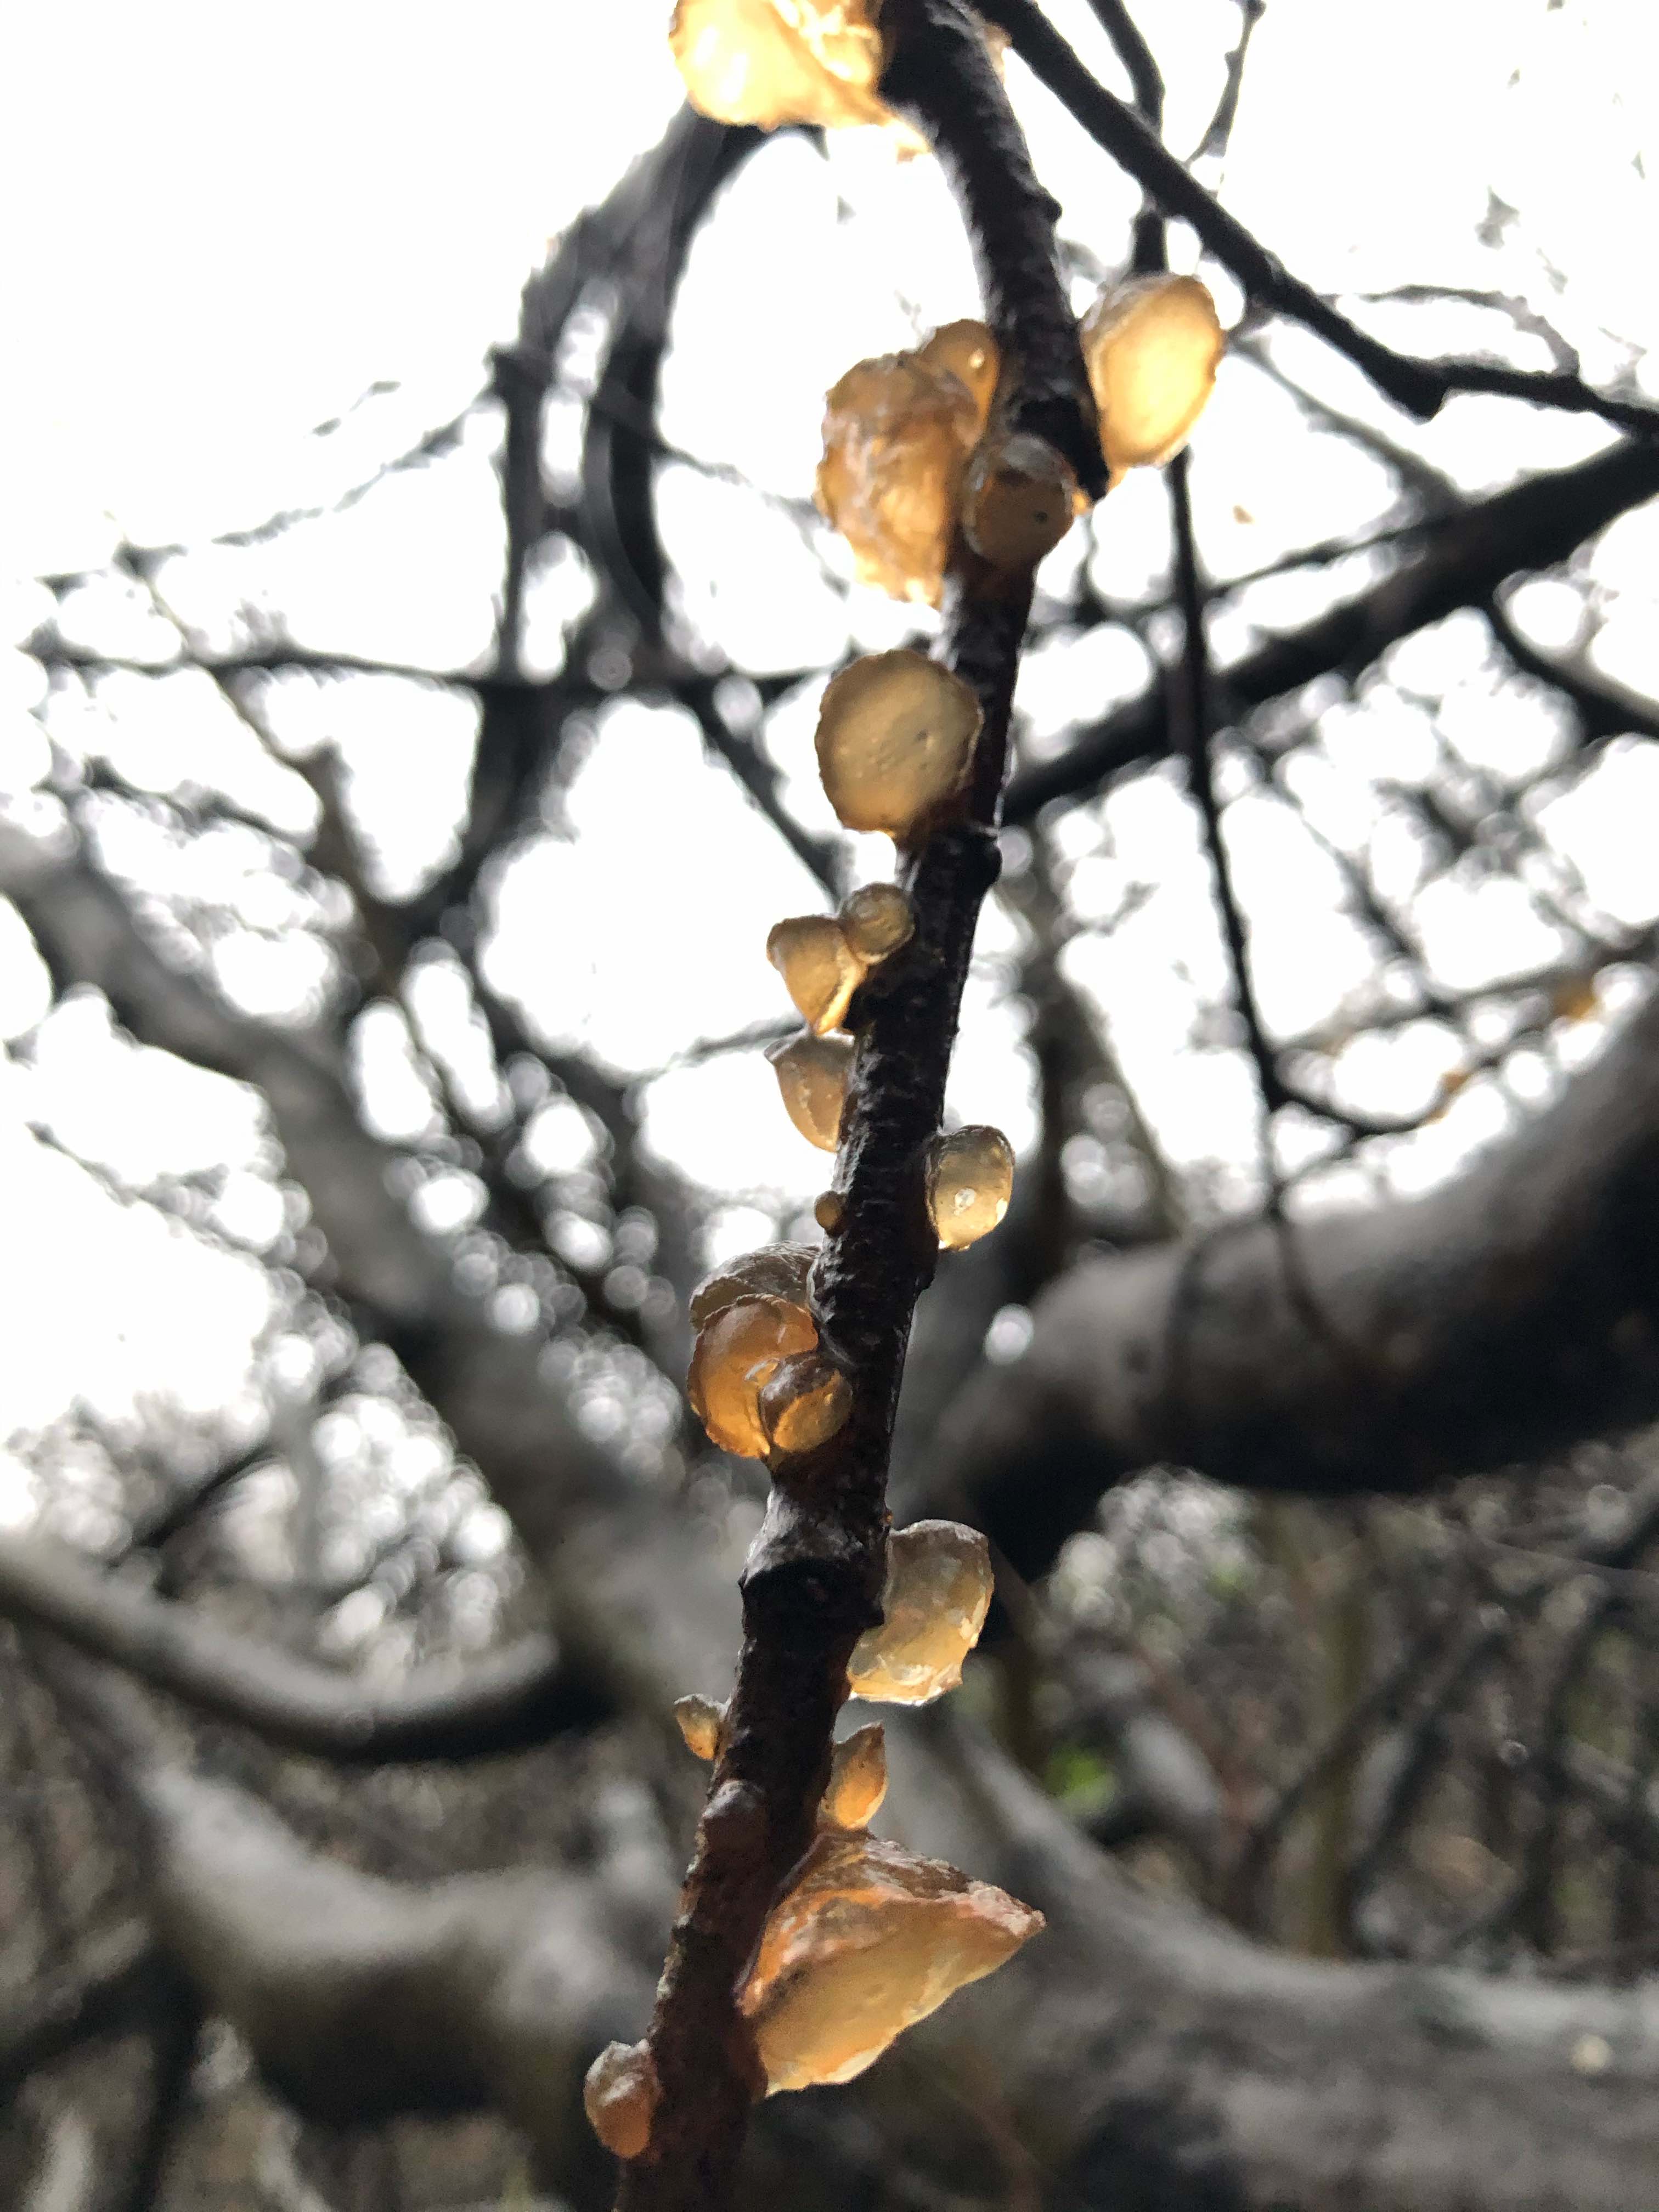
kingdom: Fungi
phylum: Basidiomycota
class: Agaricomycetes
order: Auriculariales
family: Auriculariaceae
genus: Exidia
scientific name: Exidia recisa
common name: pile-bævretop
